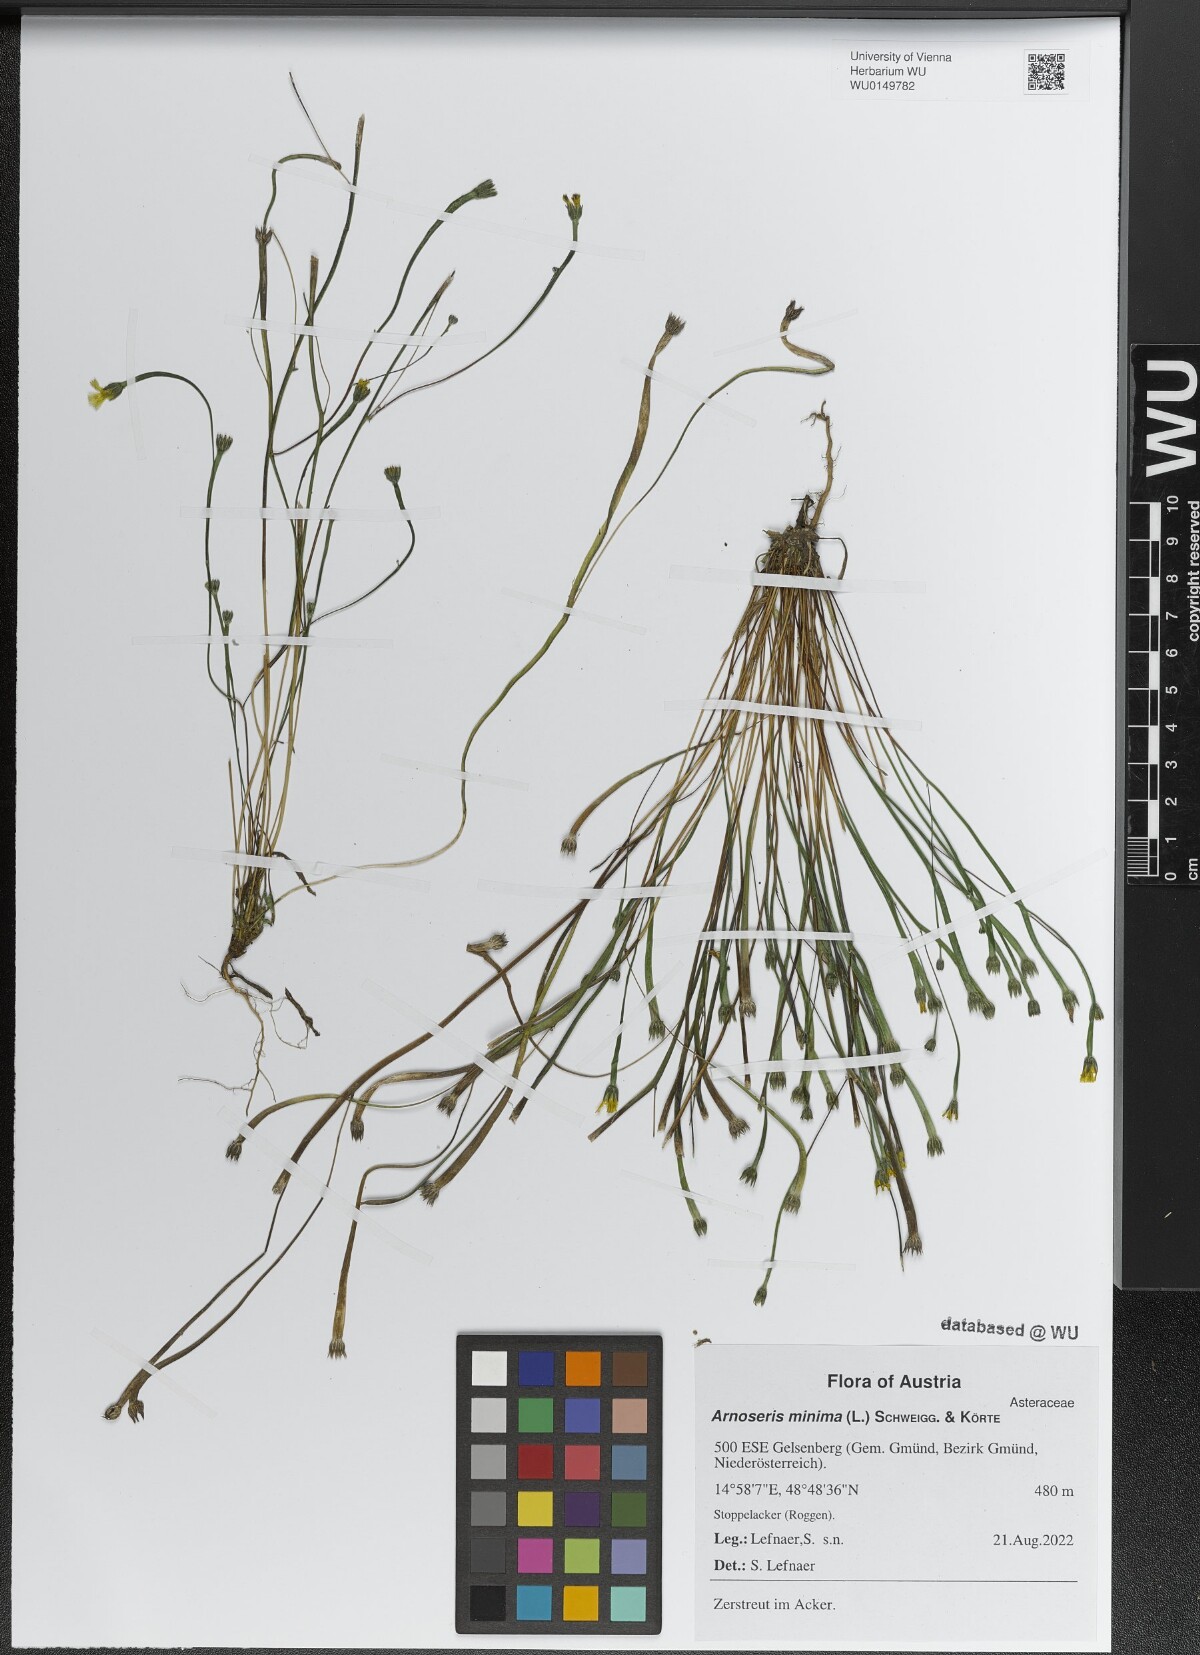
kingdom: Plantae
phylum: Tracheophyta
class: Magnoliopsida
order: Asterales
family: Asteraceae
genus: Arnoseris
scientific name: Arnoseris minima
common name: Lamb's succory
